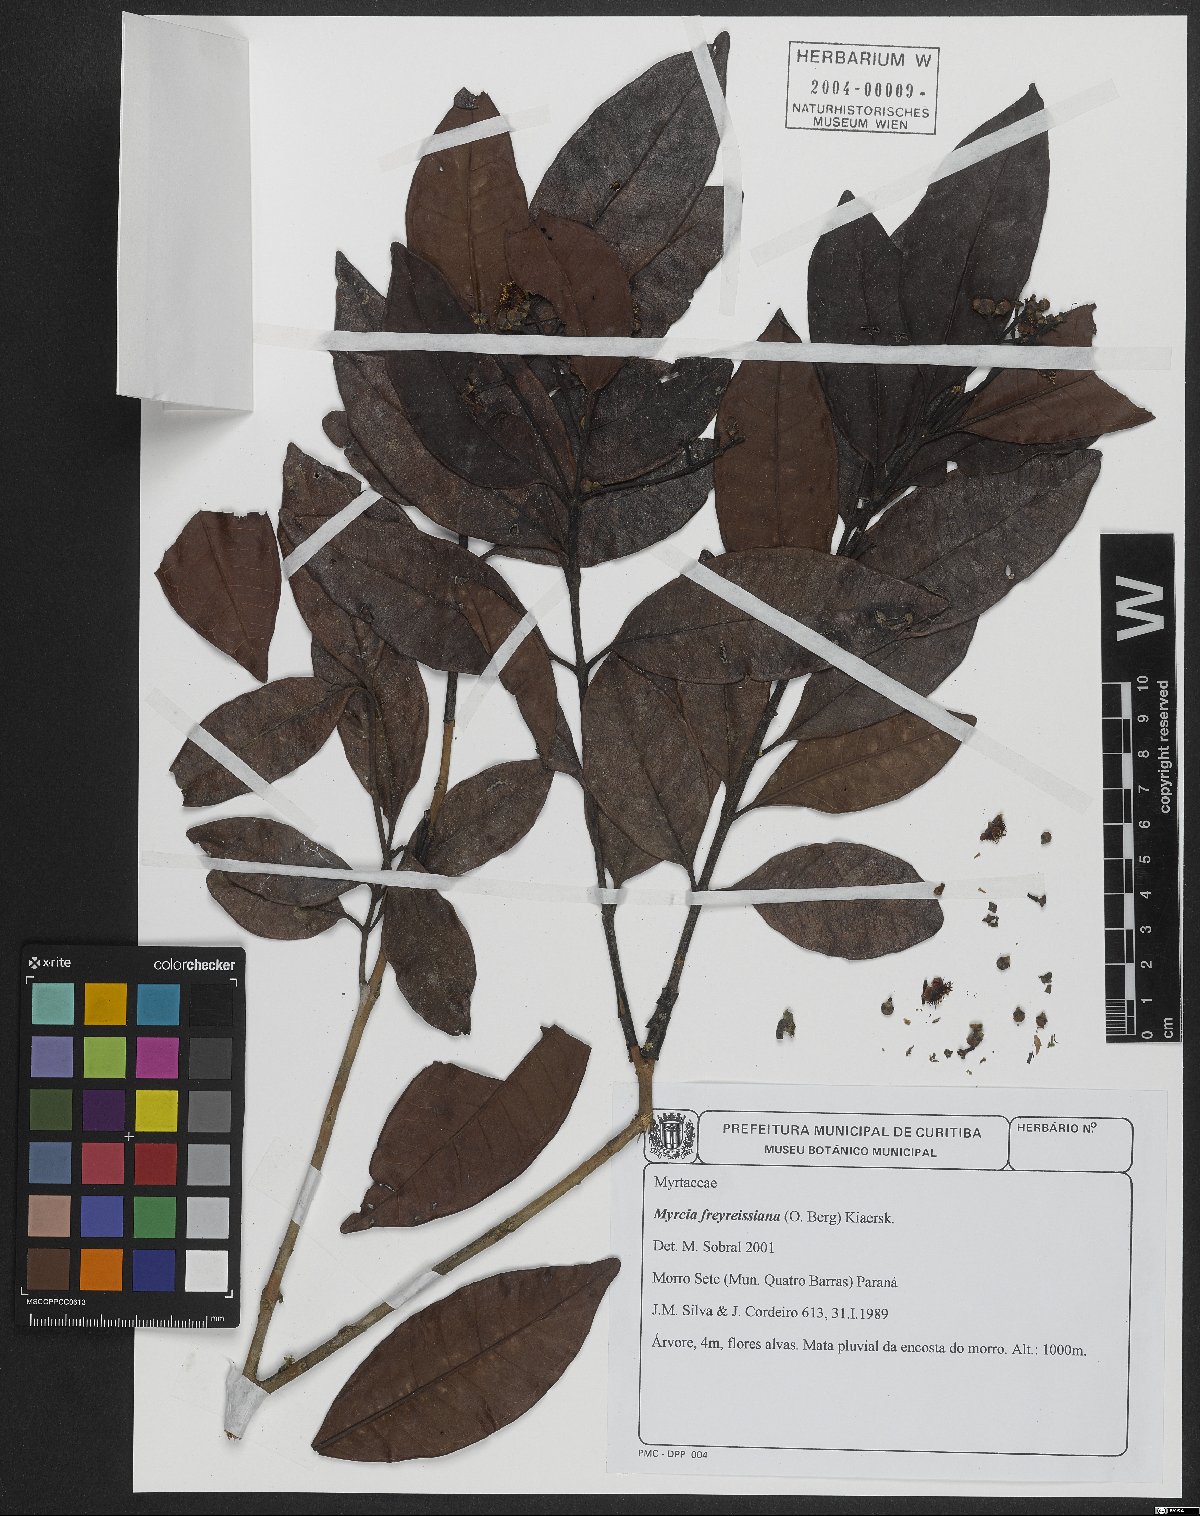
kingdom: Plantae
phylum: Tracheophyta
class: Magnoliopsida
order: Myrtales
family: Myrtaceae
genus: Myrcia
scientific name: Myrcia freyreissiana
